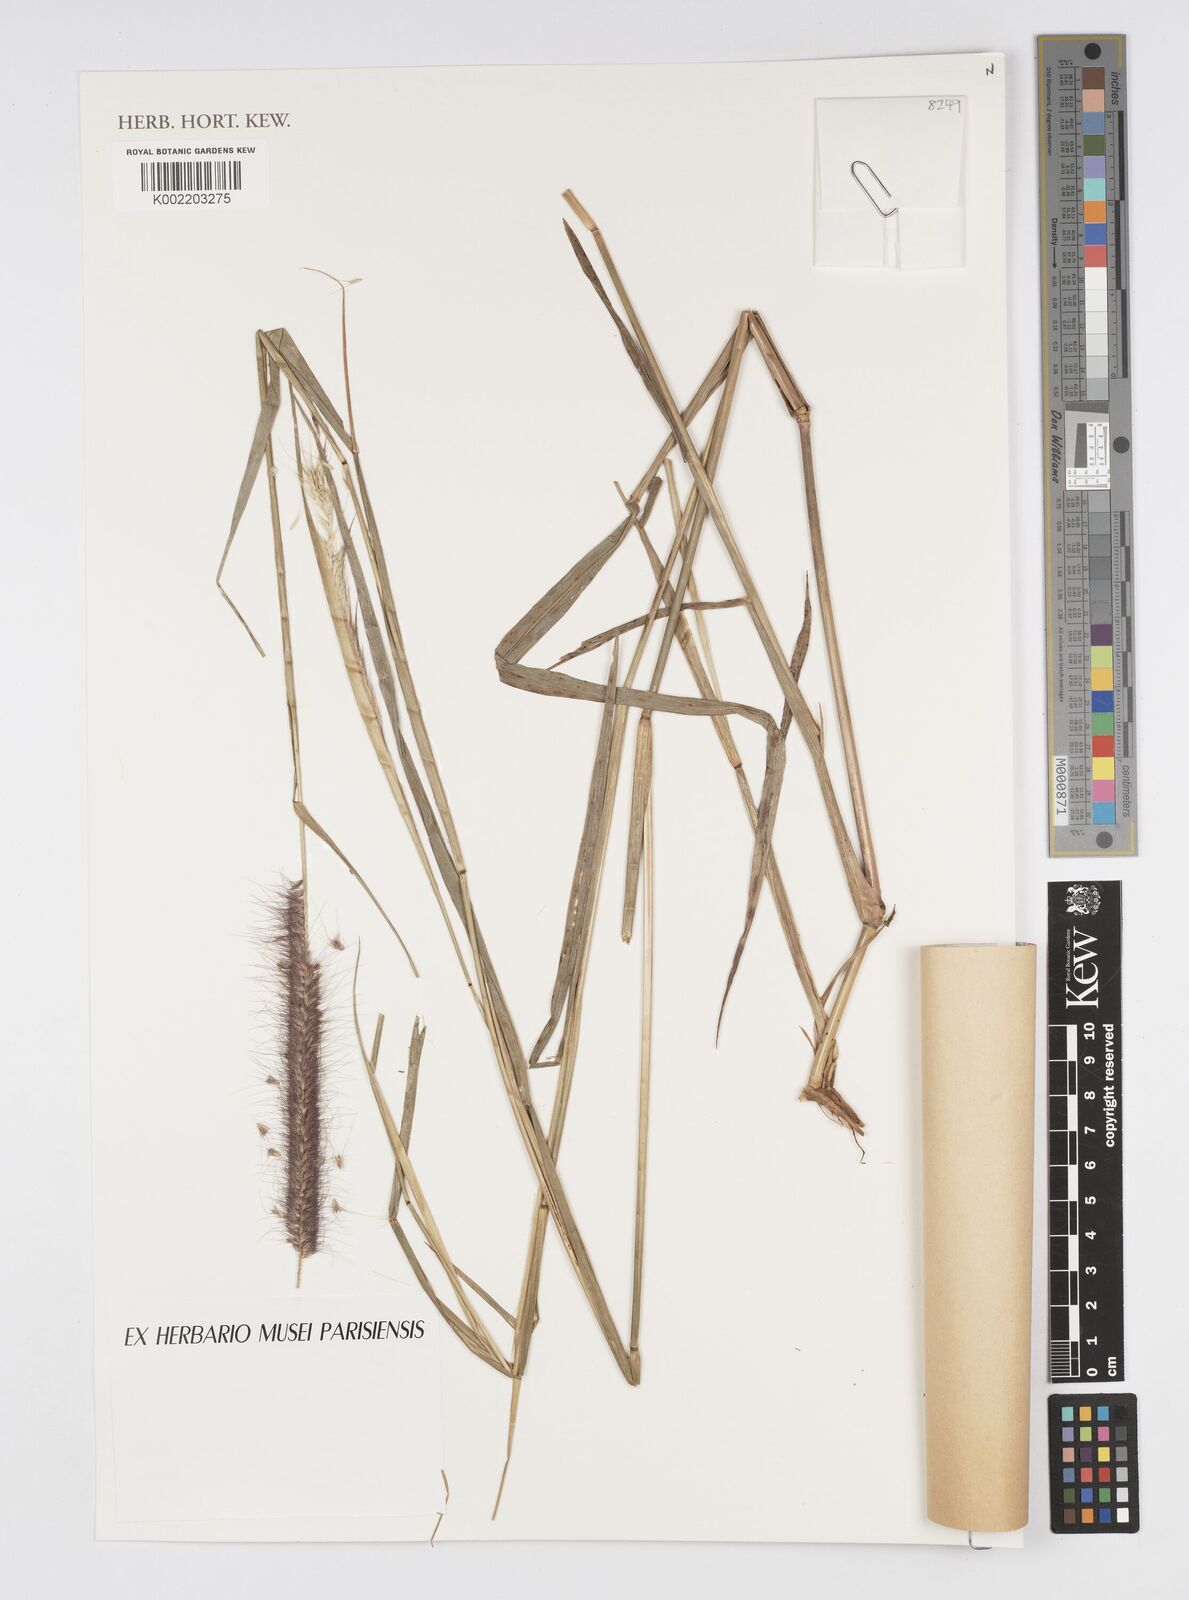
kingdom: Plantae
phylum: Tracheophyta
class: Liliopsida
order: Poales
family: Poaceae
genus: Cenchrus
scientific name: Cenchrus Pennisetum spec
